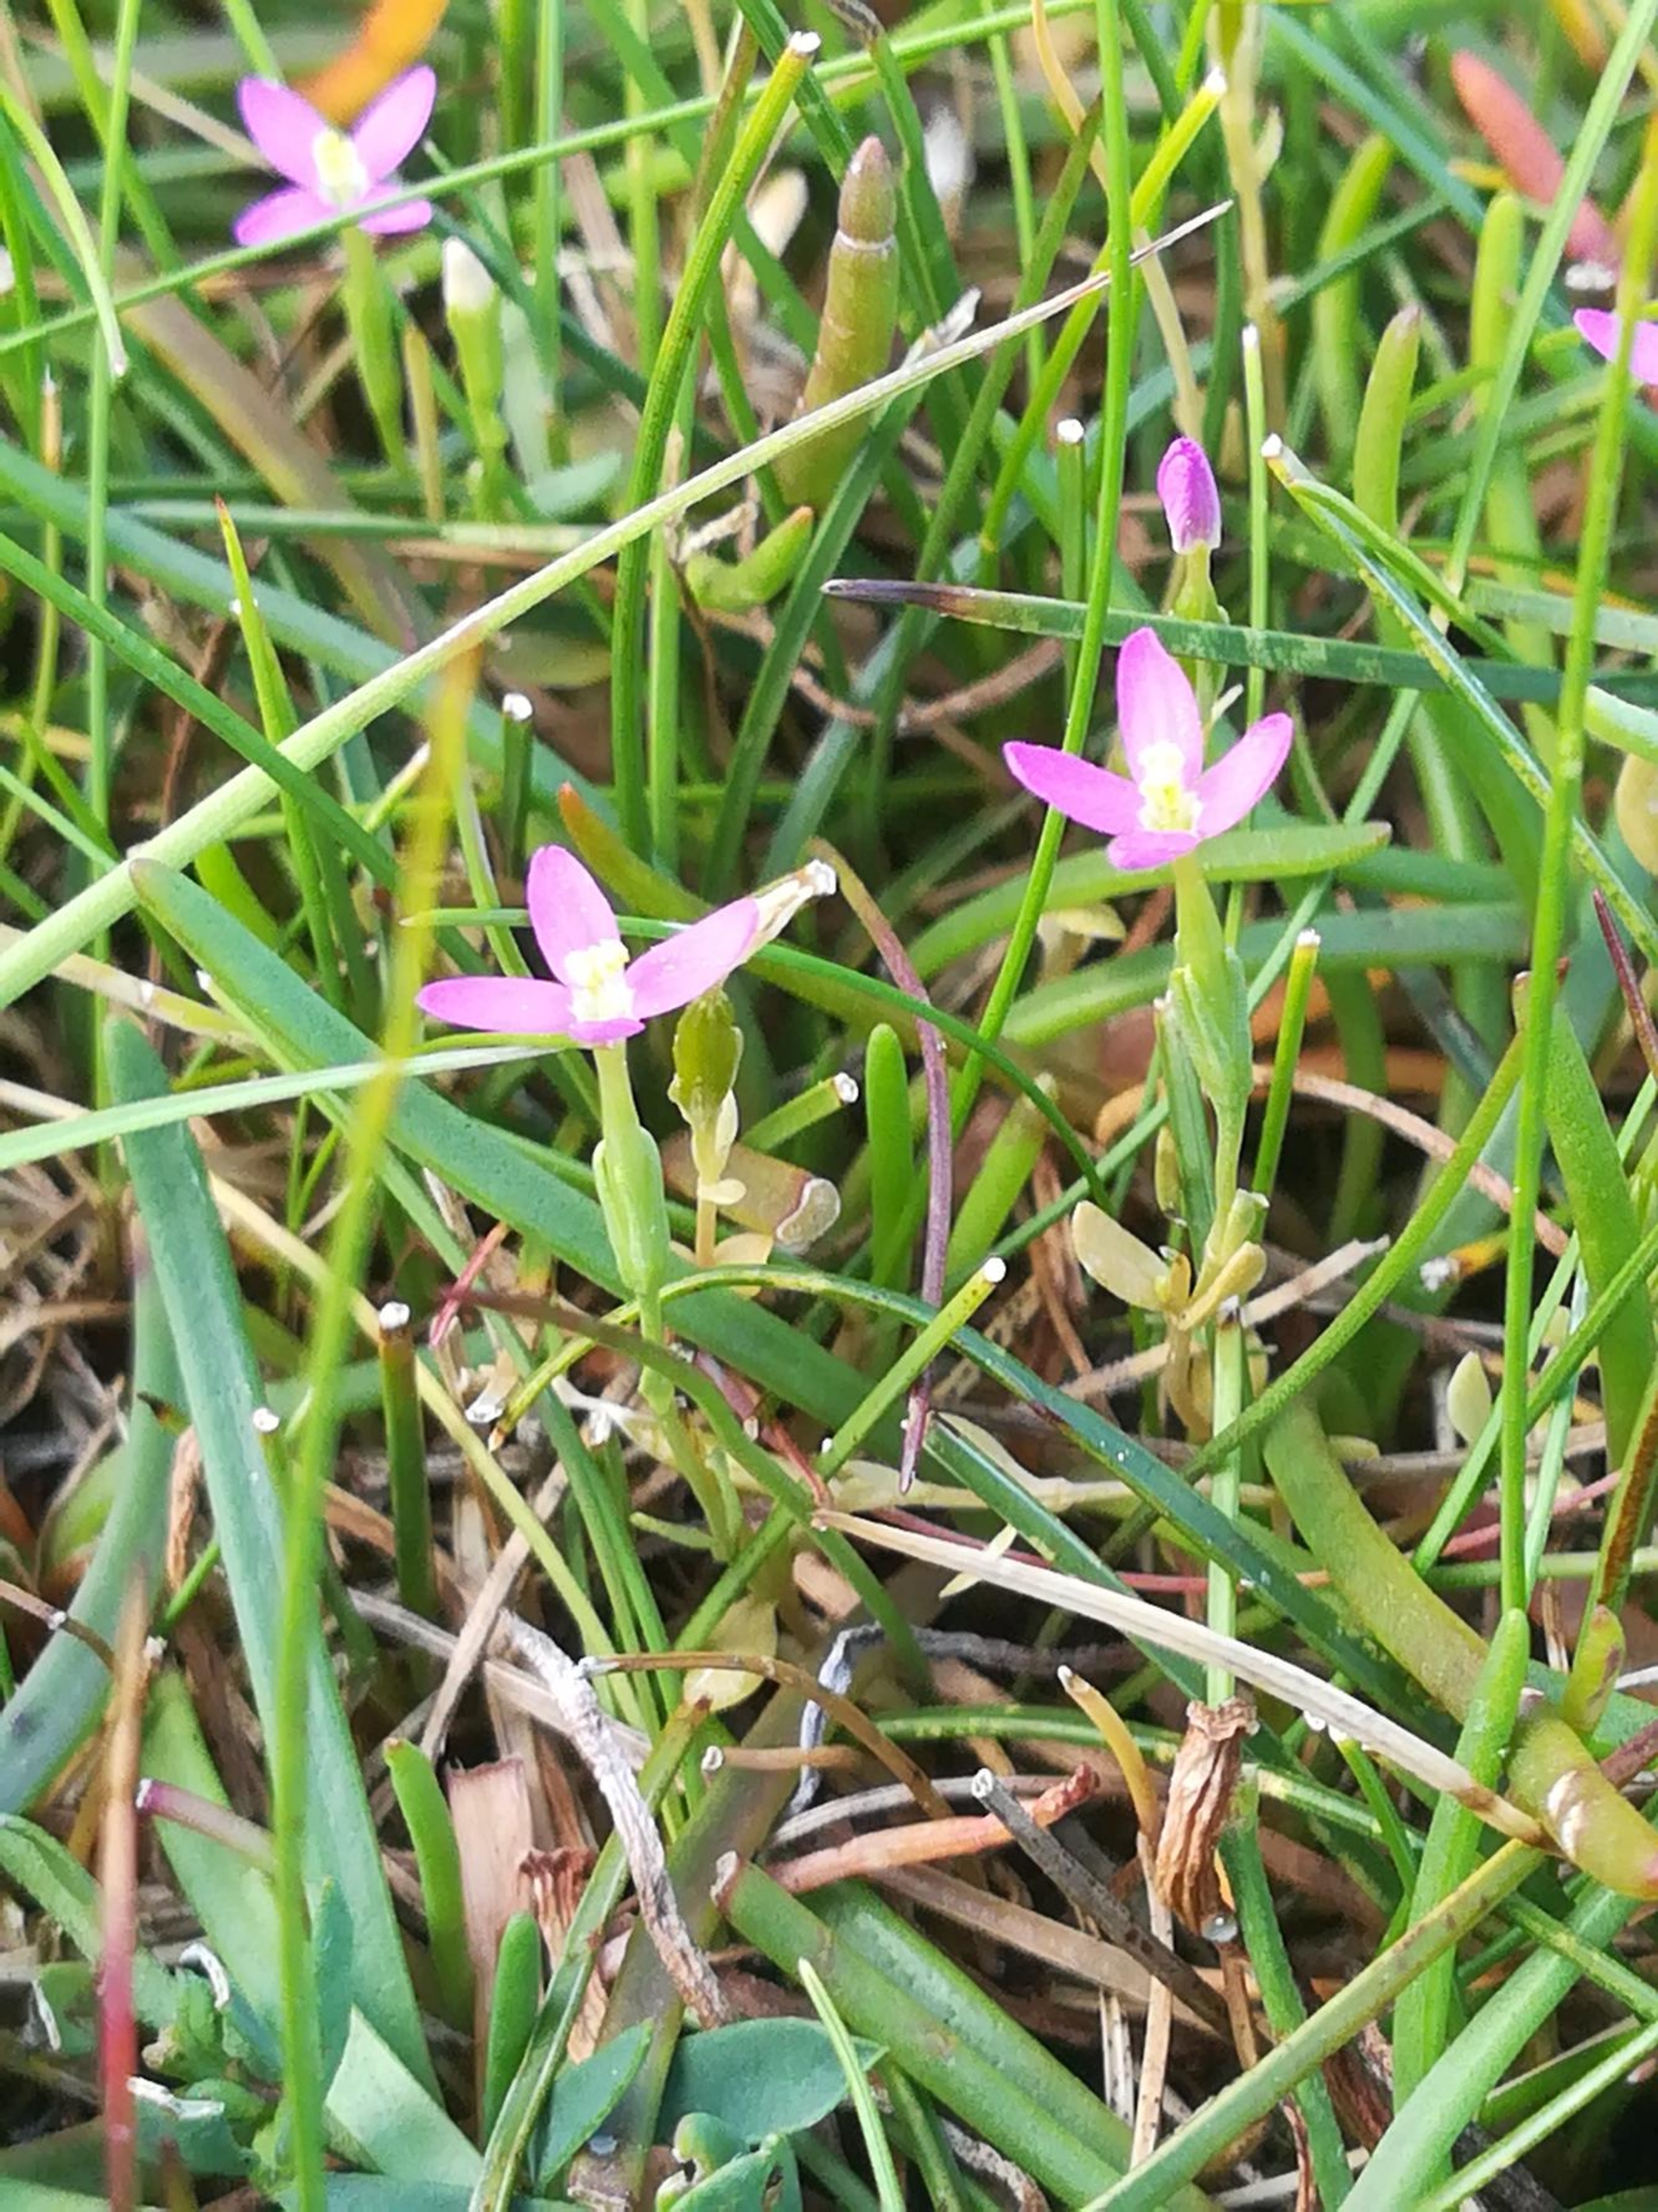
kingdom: Plantae
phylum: Tracheophyta
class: Magnoliopsida
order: Gentianales
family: Gentianaceae
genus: Centaurium
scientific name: Centaurium pulchellum
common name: Liden tusindgylden
